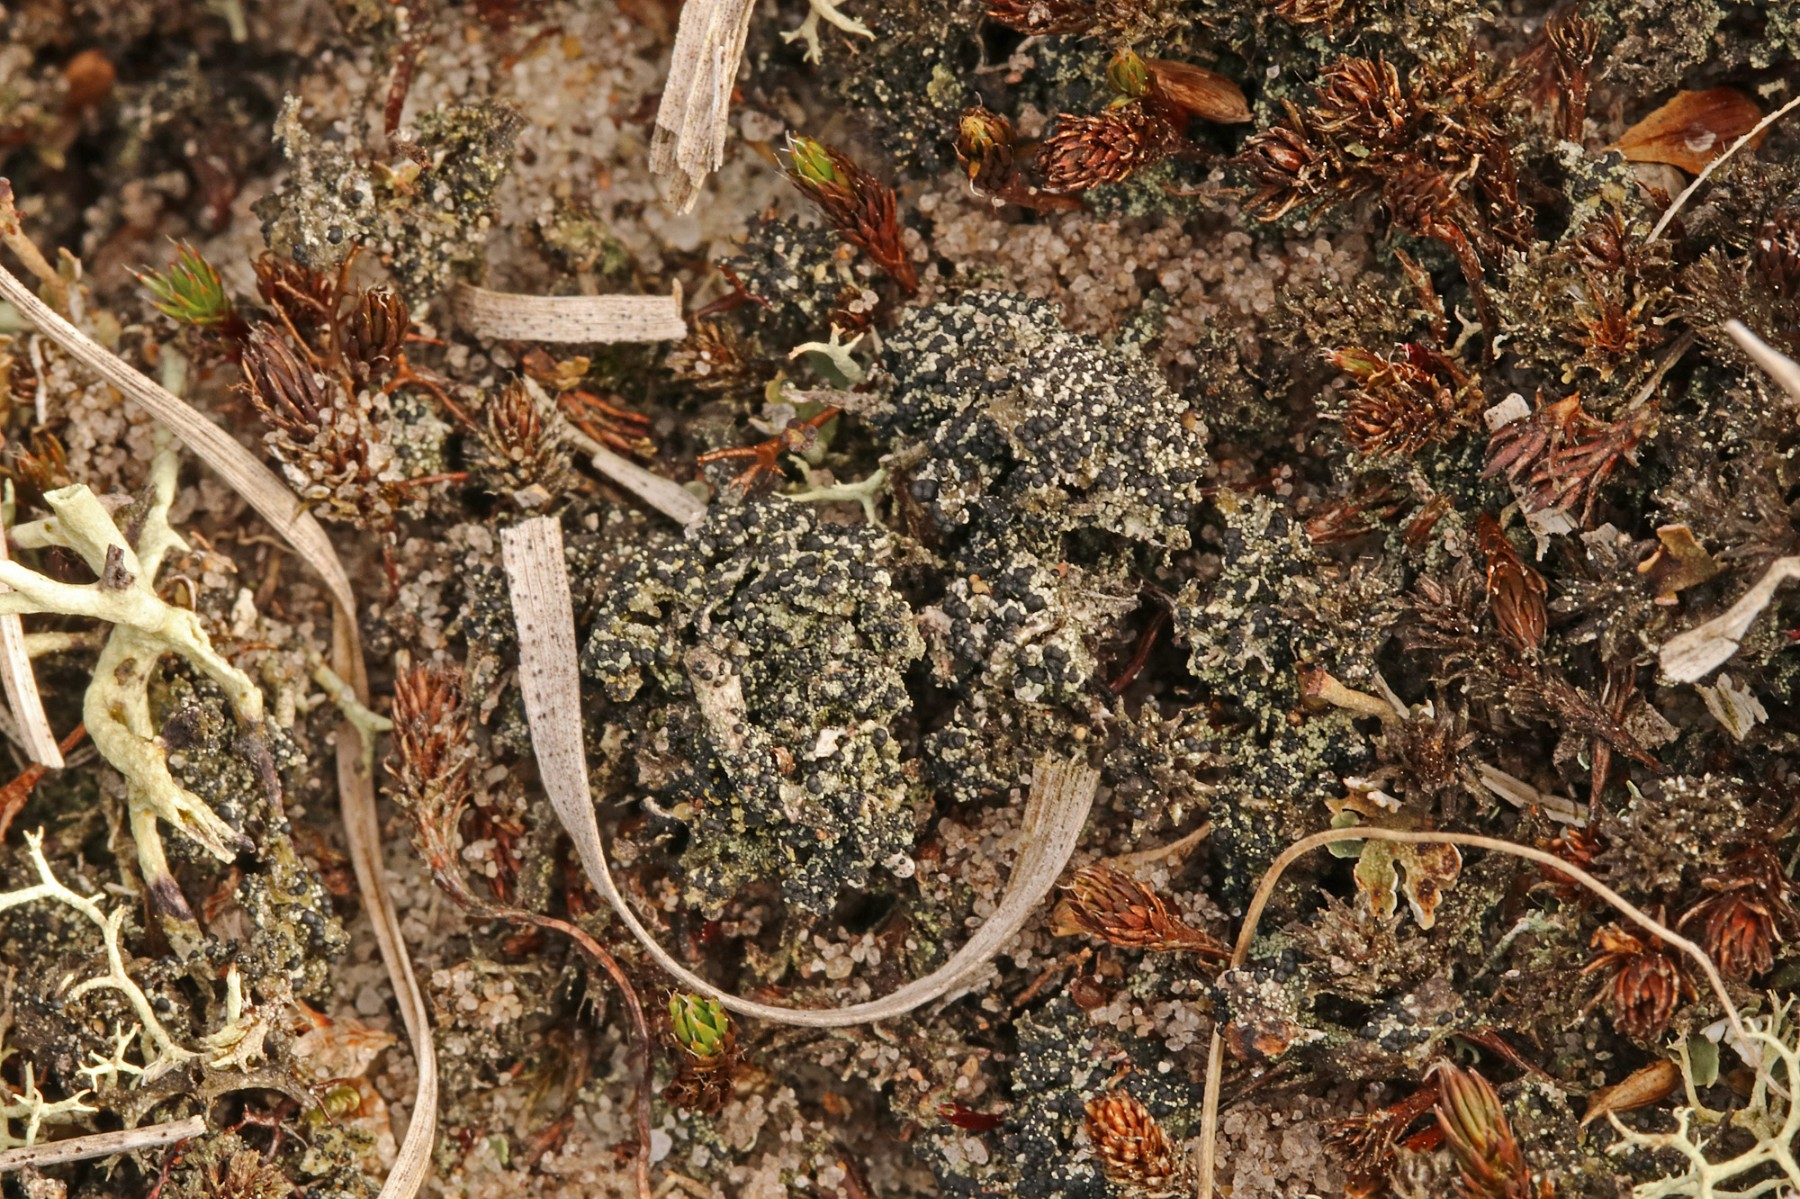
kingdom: Fungi
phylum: Ascomycota
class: Lecanoromycetes
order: Lecanorales
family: Byssolomataceae
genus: Micarea
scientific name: Micarea lignaria
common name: tørve-knaplav
